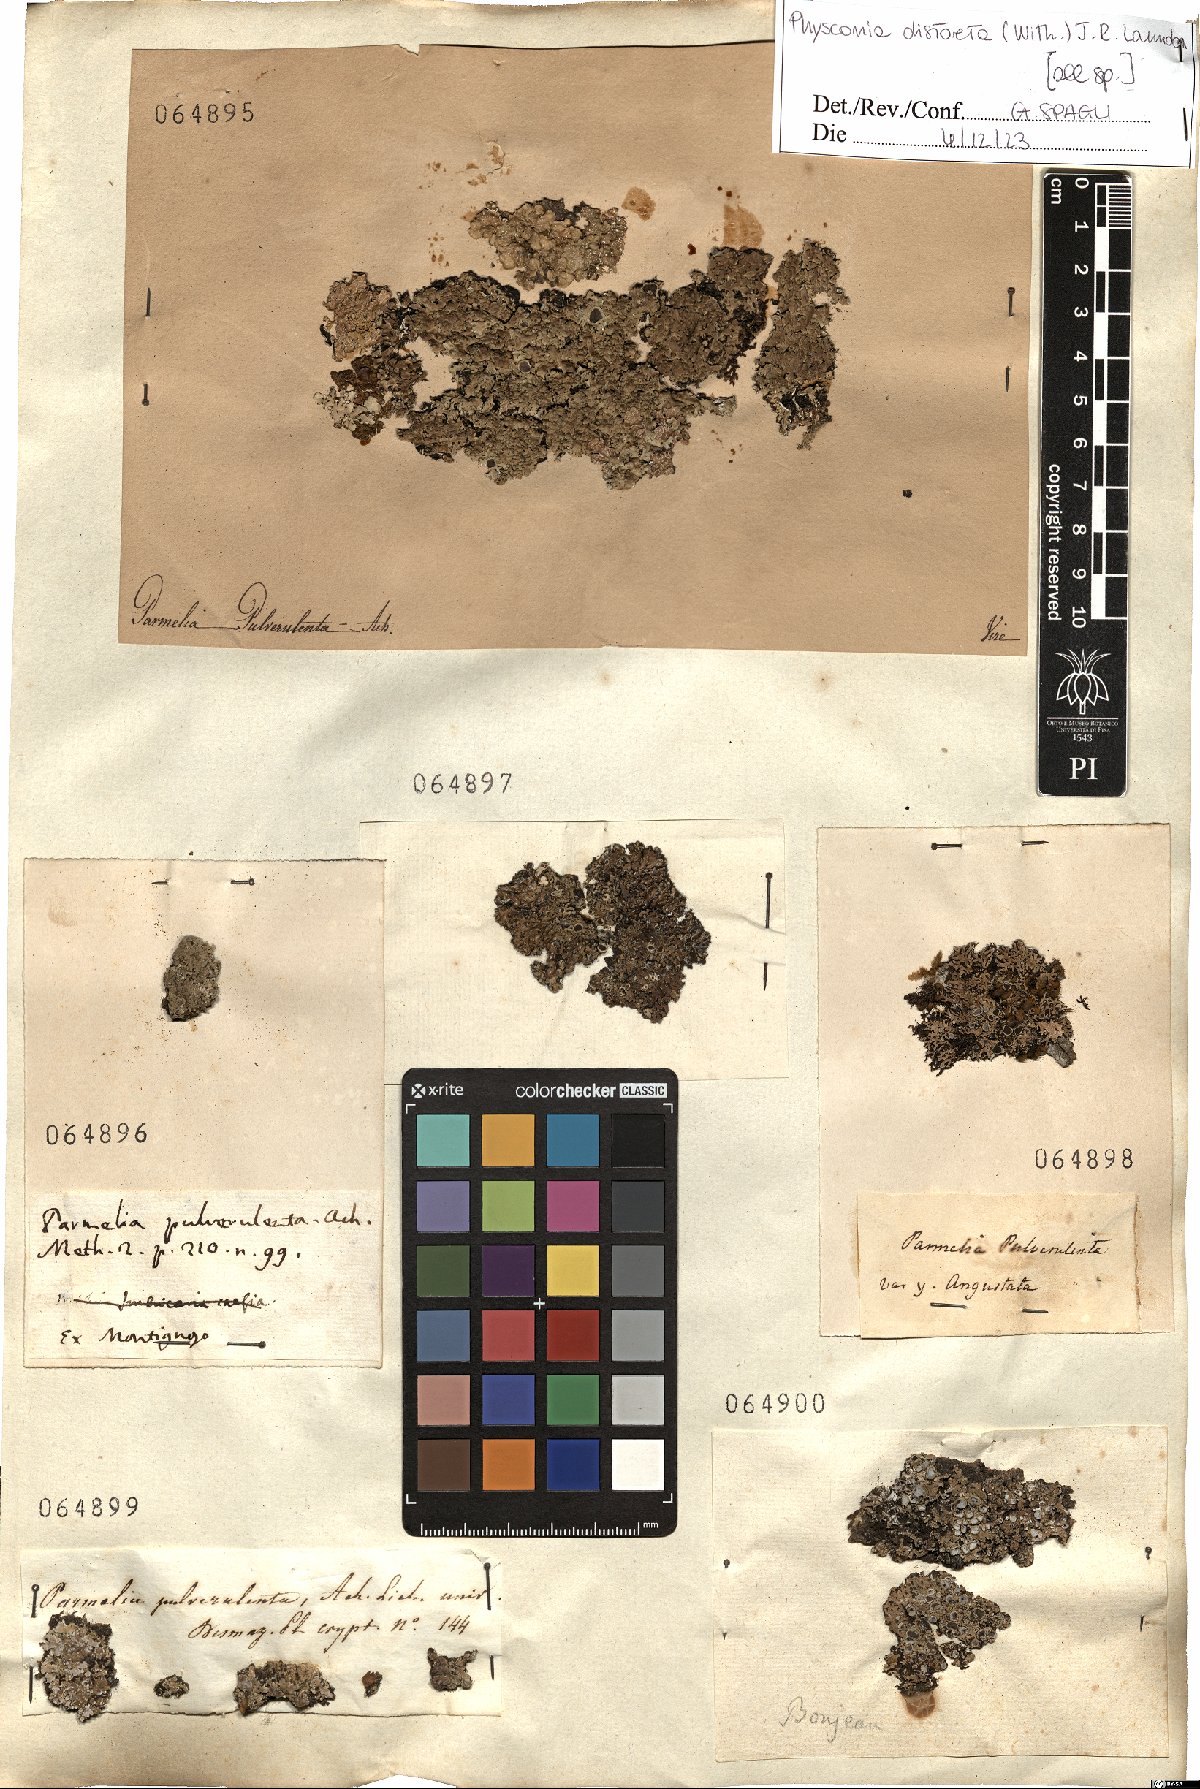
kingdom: Fungi
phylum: Ascomycota
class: Lecanoromycetes
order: Caliciales
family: Physciaceae
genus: Physconia
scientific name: Physconia distorta
